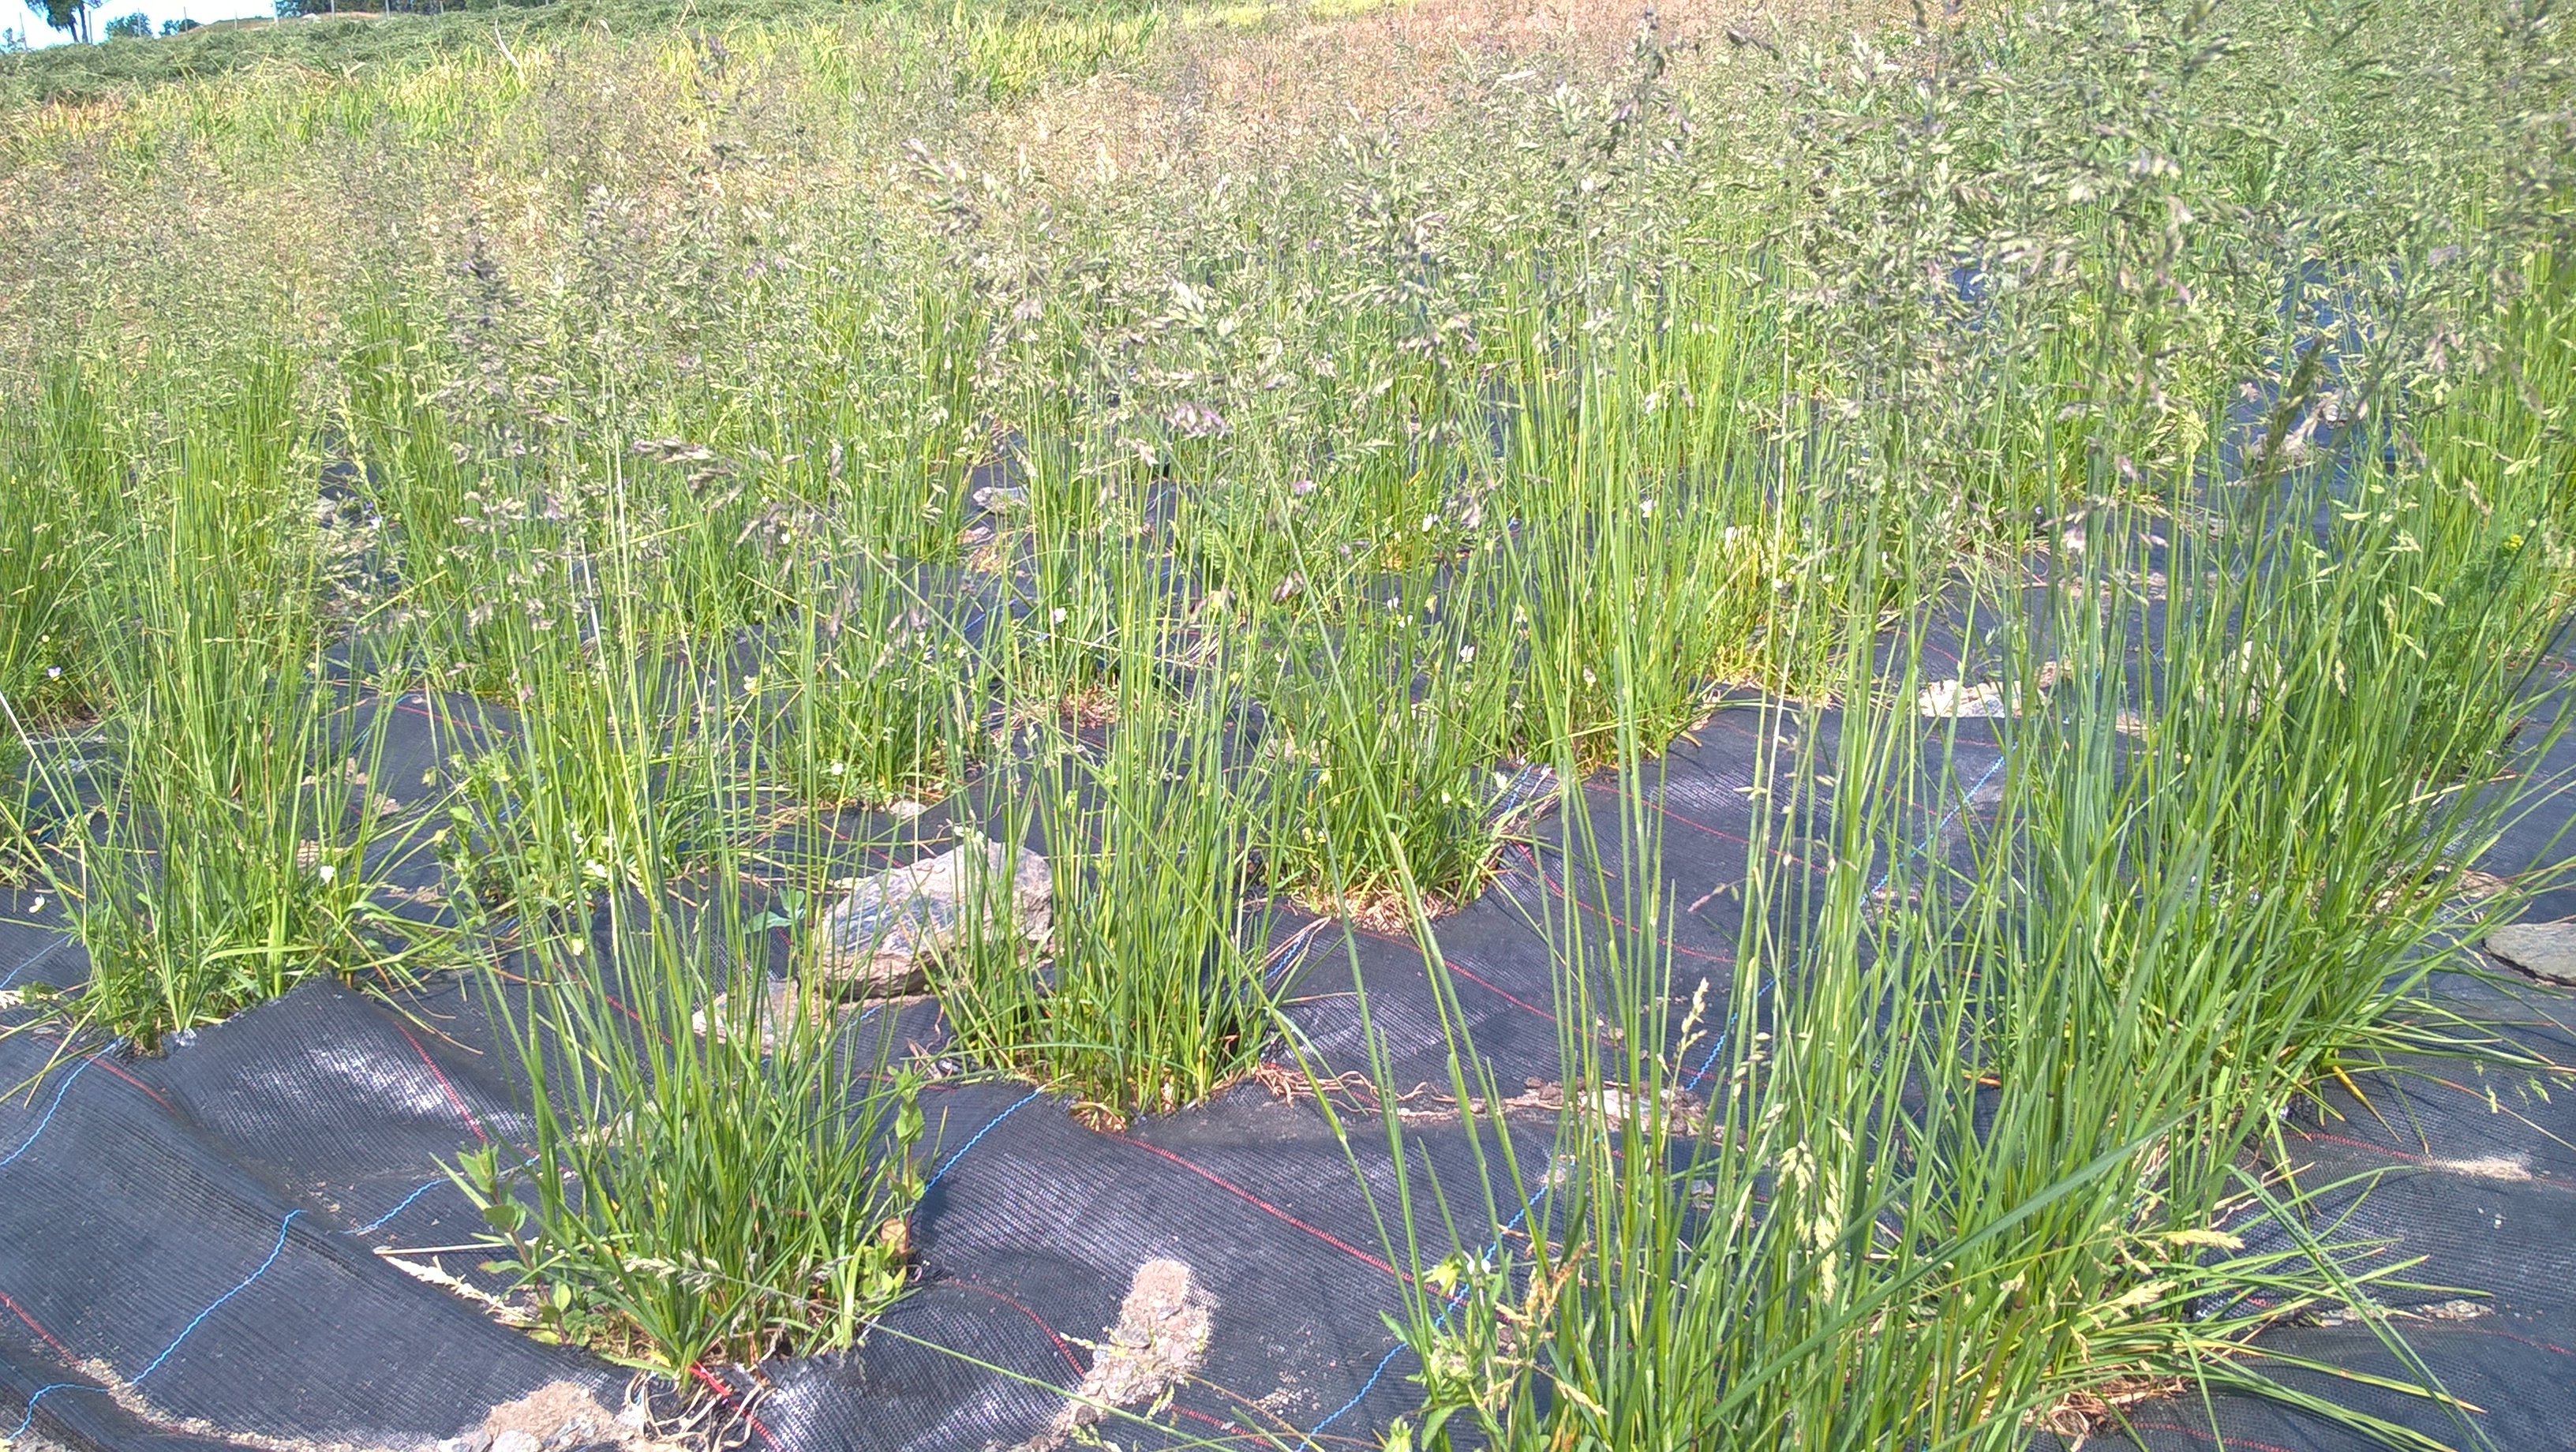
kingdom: Plantae
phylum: Tracheophyta
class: Liliopsida
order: Poales
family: Poaceae
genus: Poa
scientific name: Poa pratensis
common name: Kentucky bluegrass
